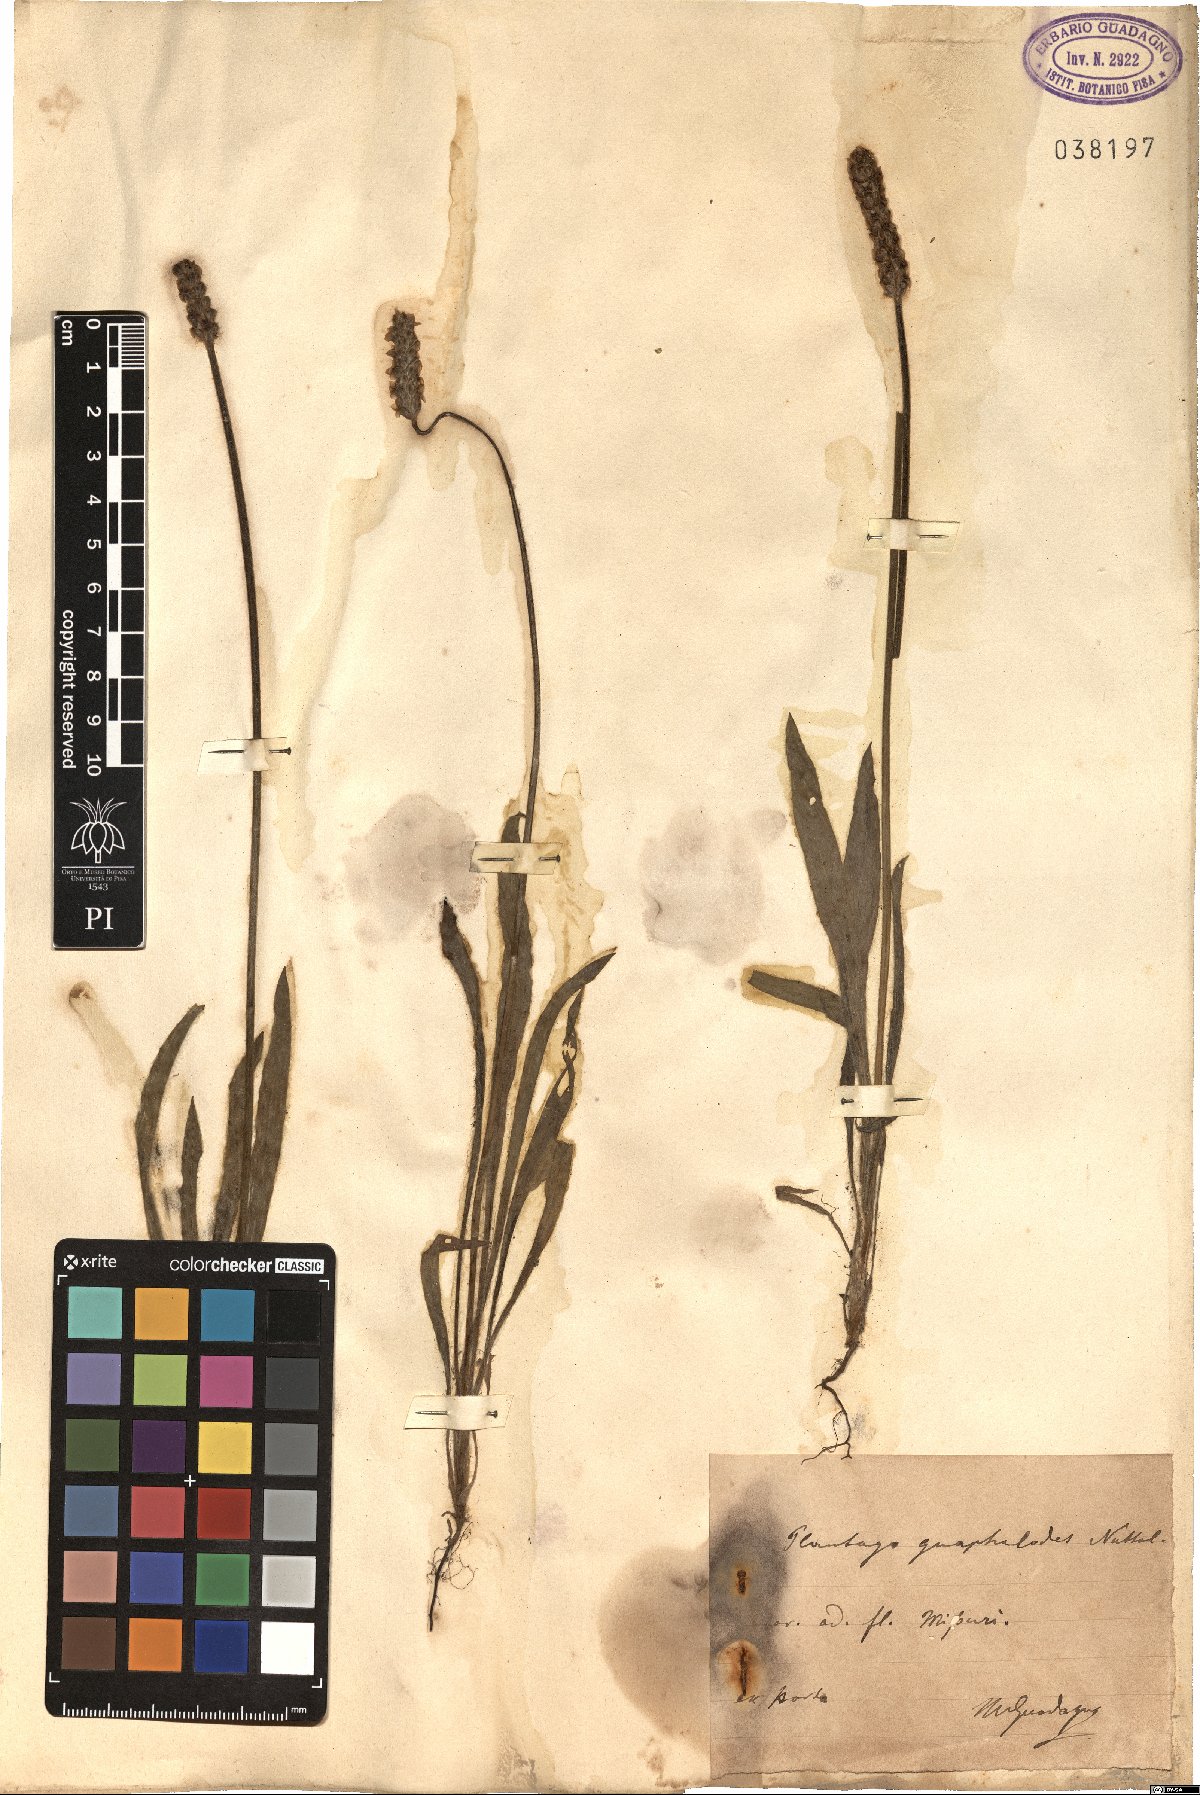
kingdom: Plantae
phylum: Tracheophyta
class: Magnoliopsida
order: Lamiales
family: Plantaginaceae
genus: Plantago
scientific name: Plantago patagonica
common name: Patagonia indian-wheat
